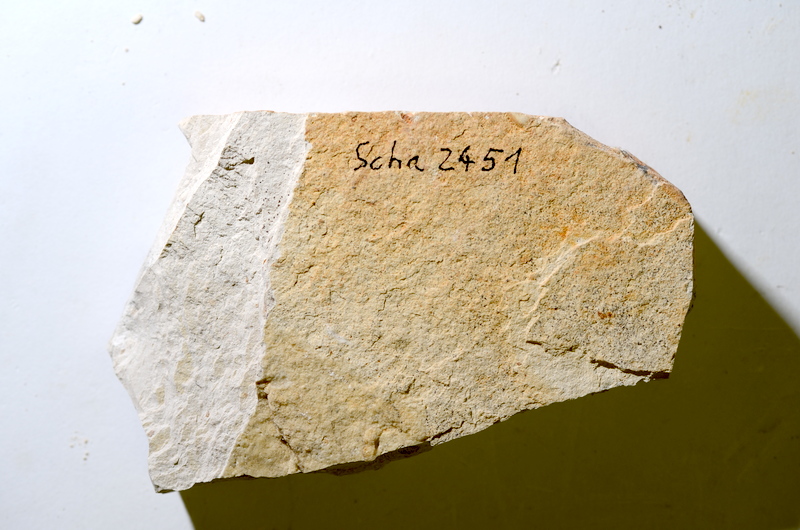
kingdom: Animalia
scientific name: Animalia
